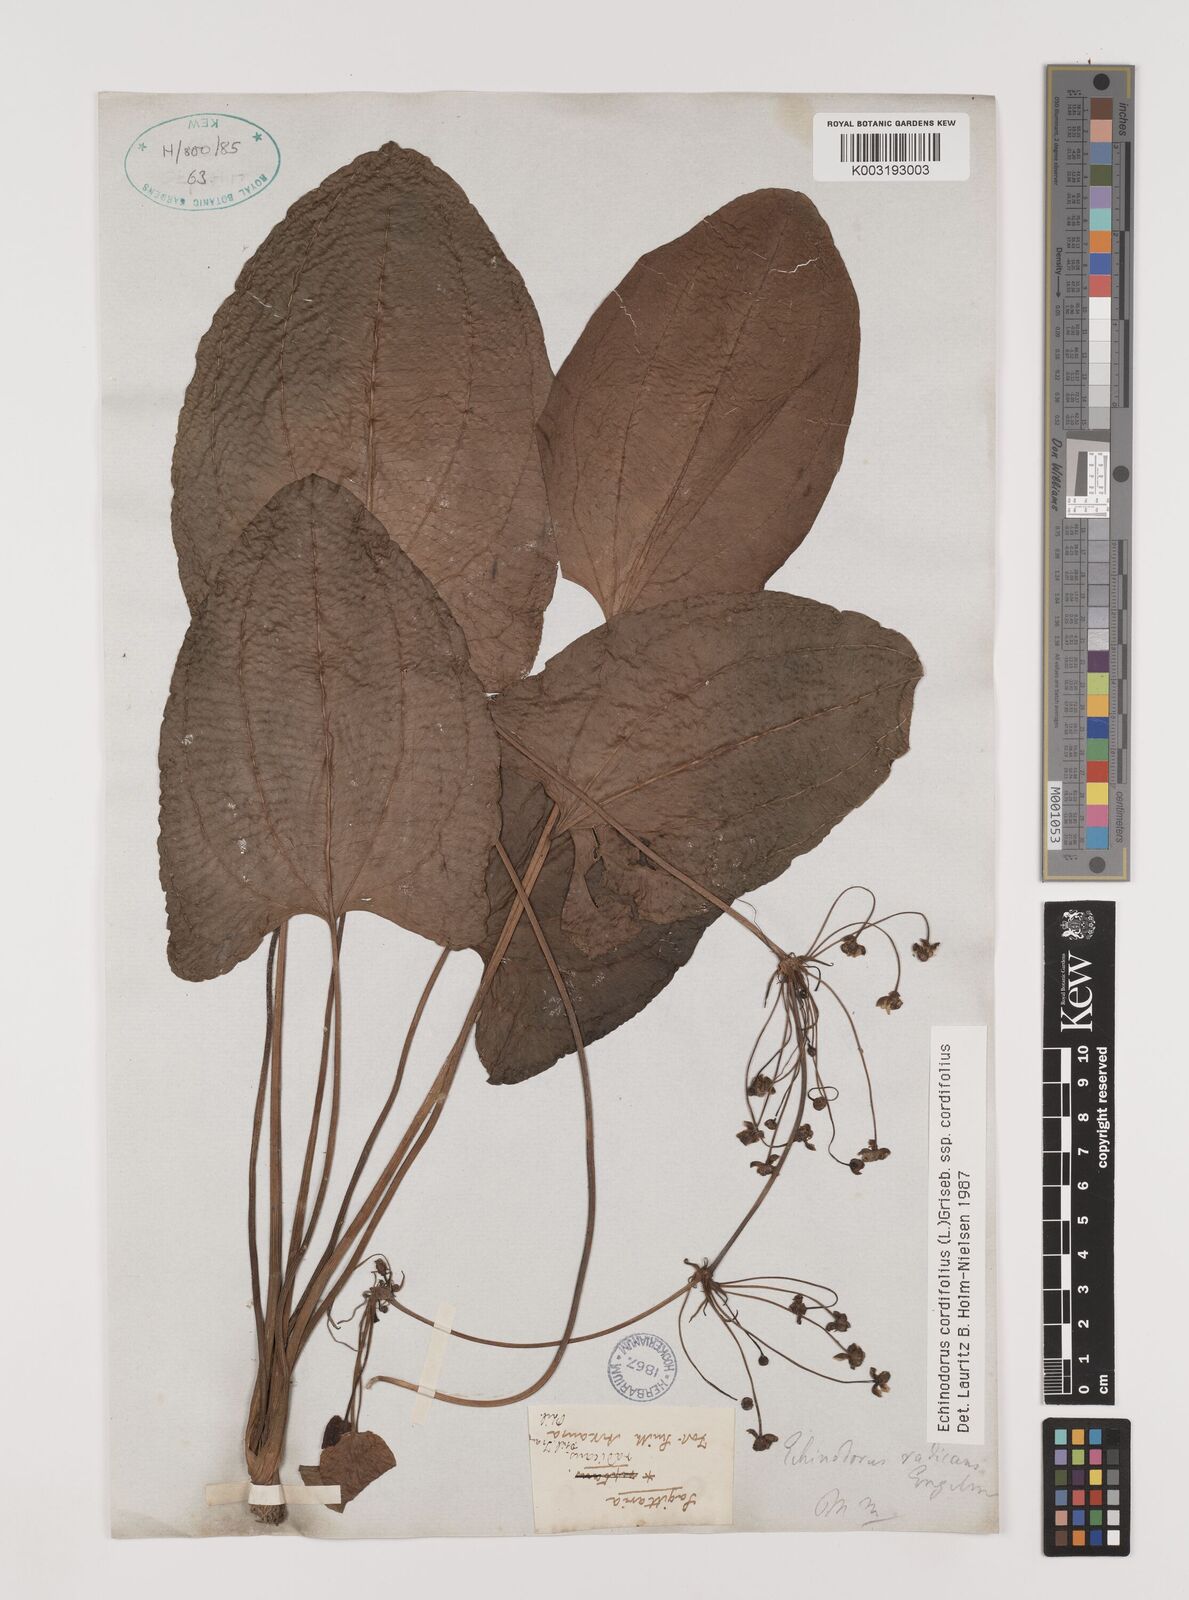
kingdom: Plantae
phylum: Tracheophyta
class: Liliopsida
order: Alismatales
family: Alismataceae
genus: Aquarius
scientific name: Aquarius cordifolius
